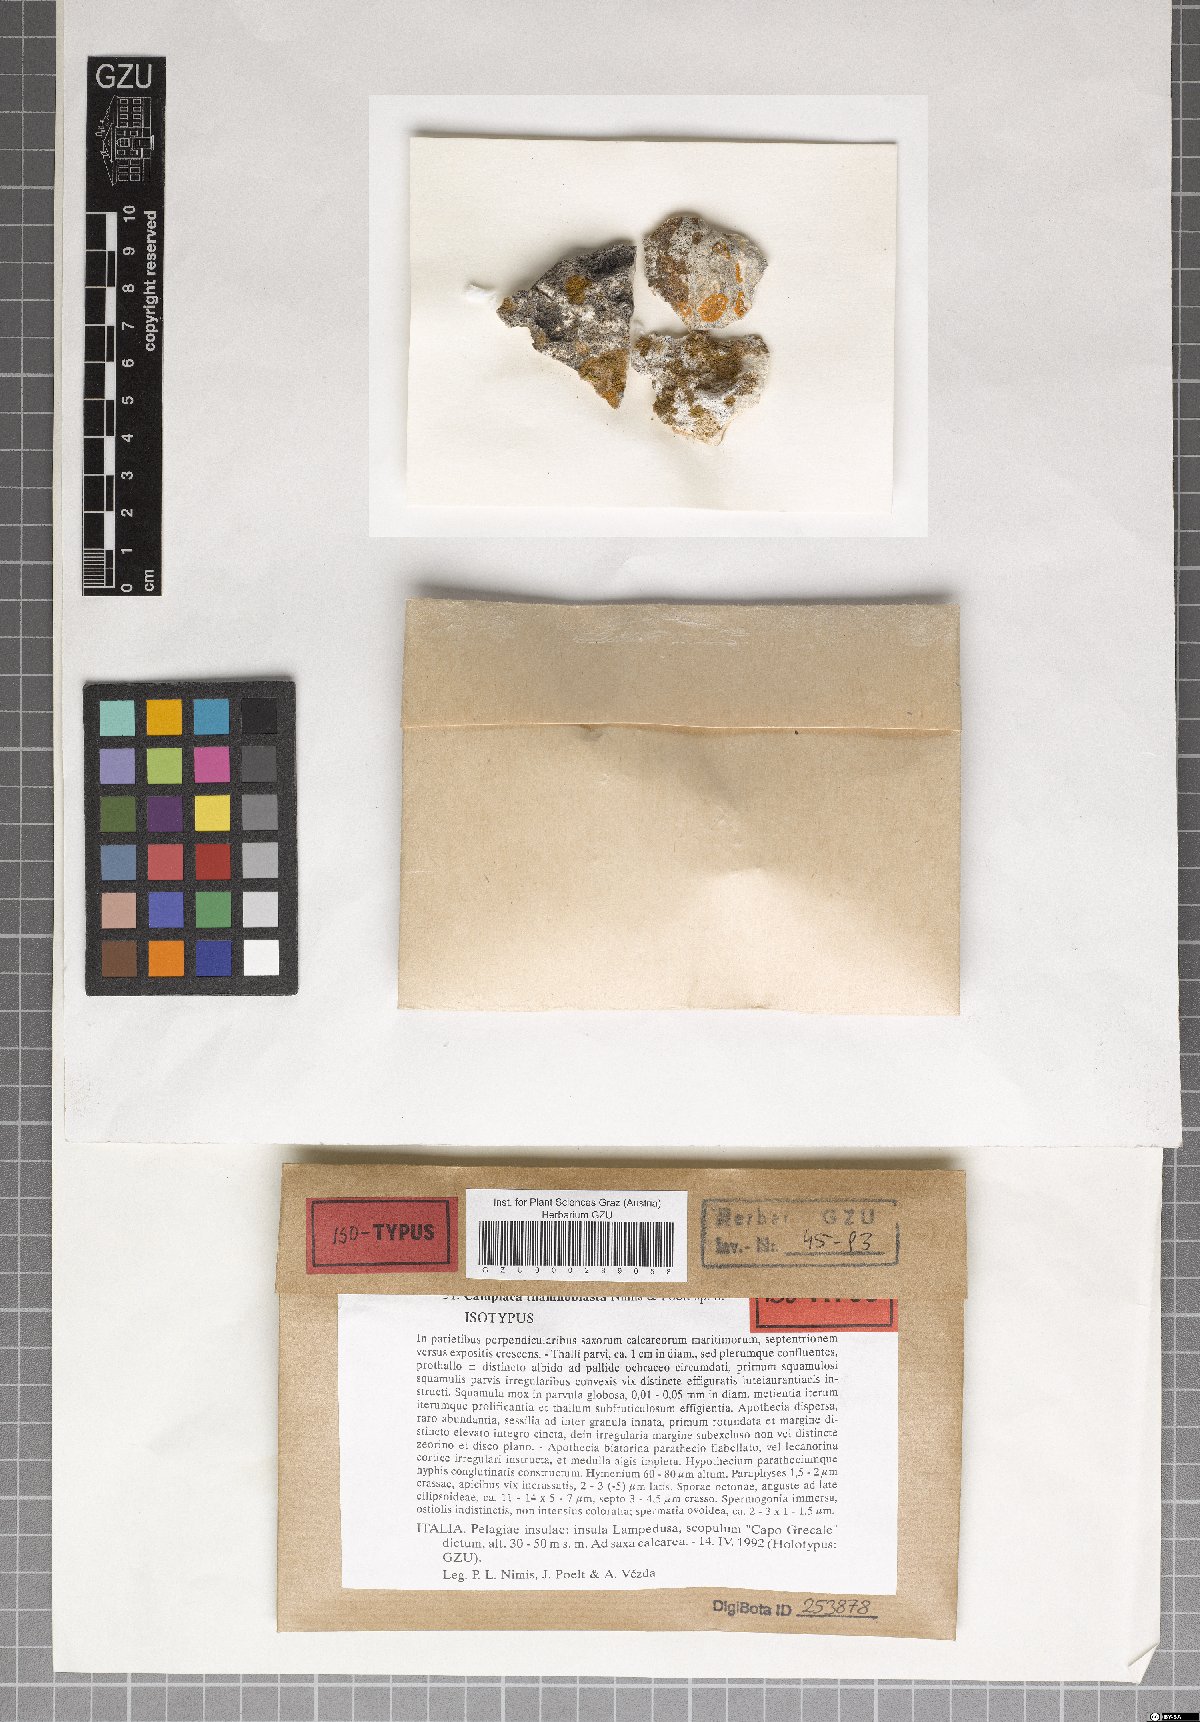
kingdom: Fungi
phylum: Ascomycota
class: Lecanoromycetes
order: Teloschistales
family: Teloschistaceae
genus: Caloplaca
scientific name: Caloplaca
